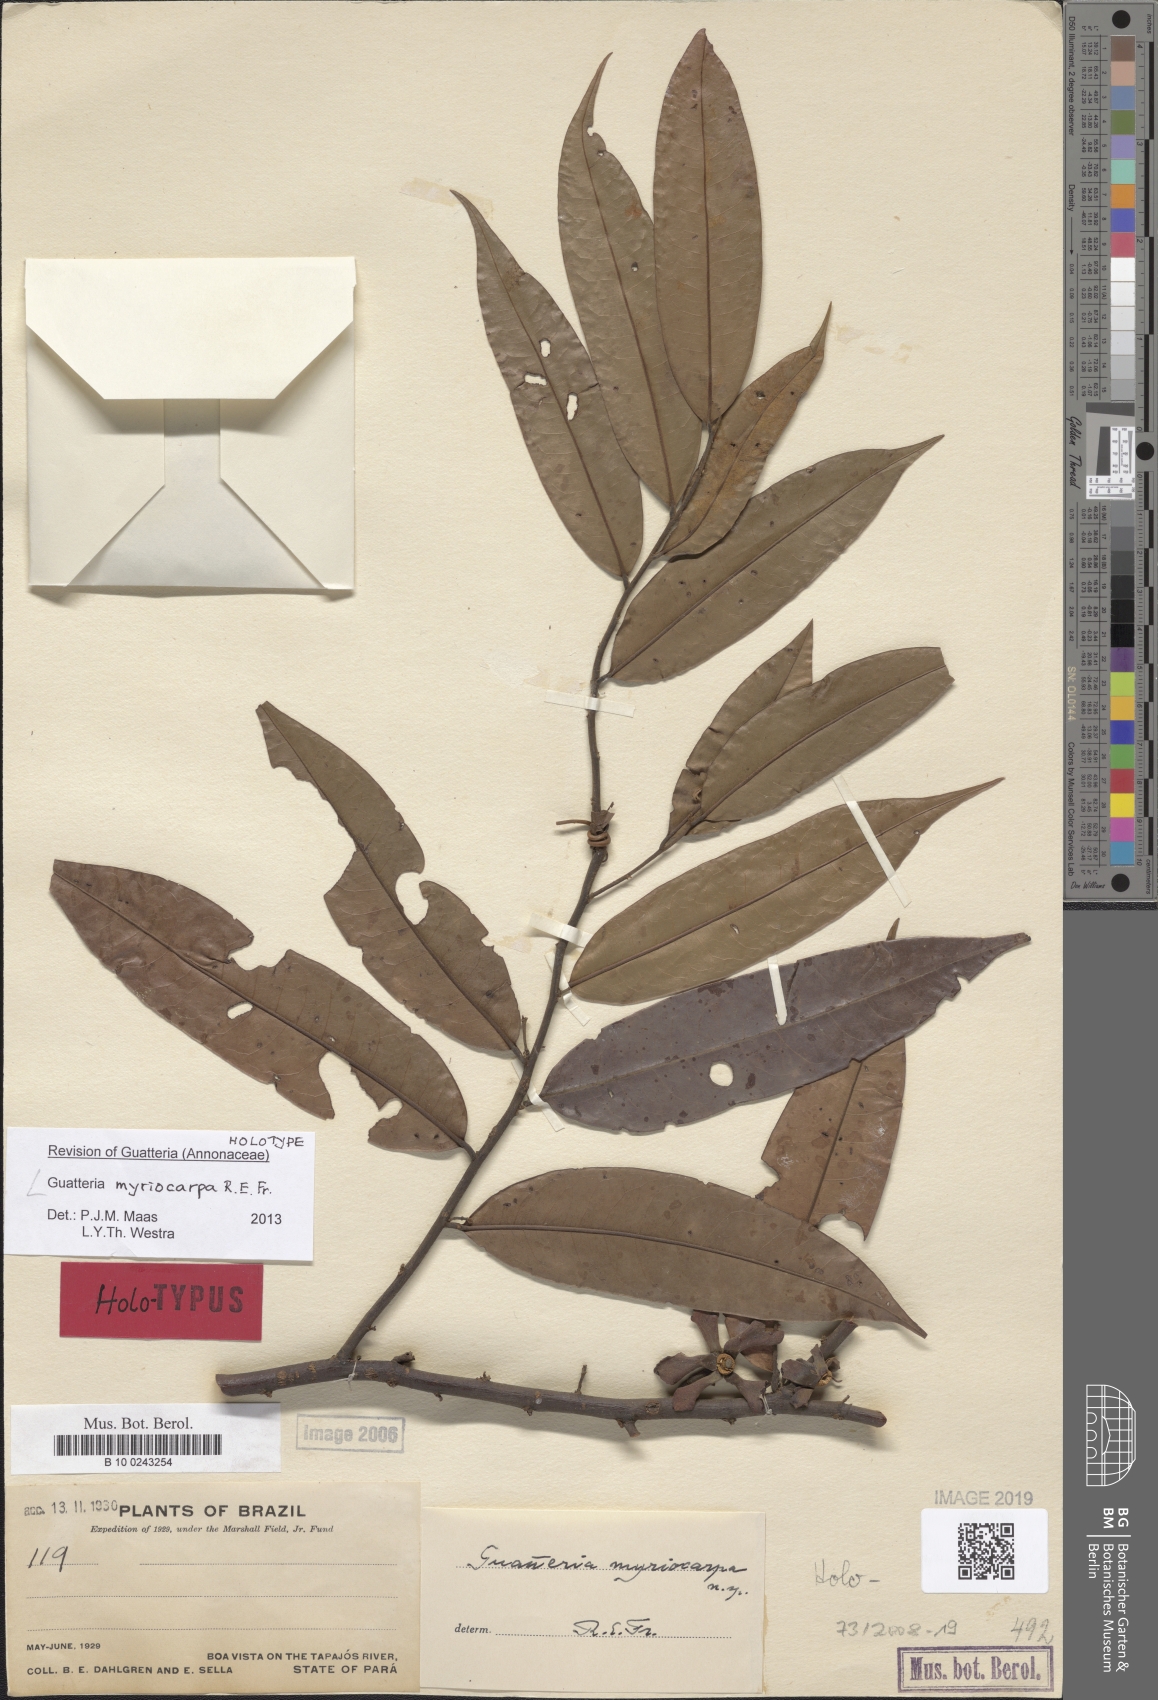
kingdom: Plantae
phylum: Tracheophyta
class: Magnoliopsida
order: Magnoliales
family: Annonaceae
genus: Guatteria
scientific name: Guatteria myriocarpa
